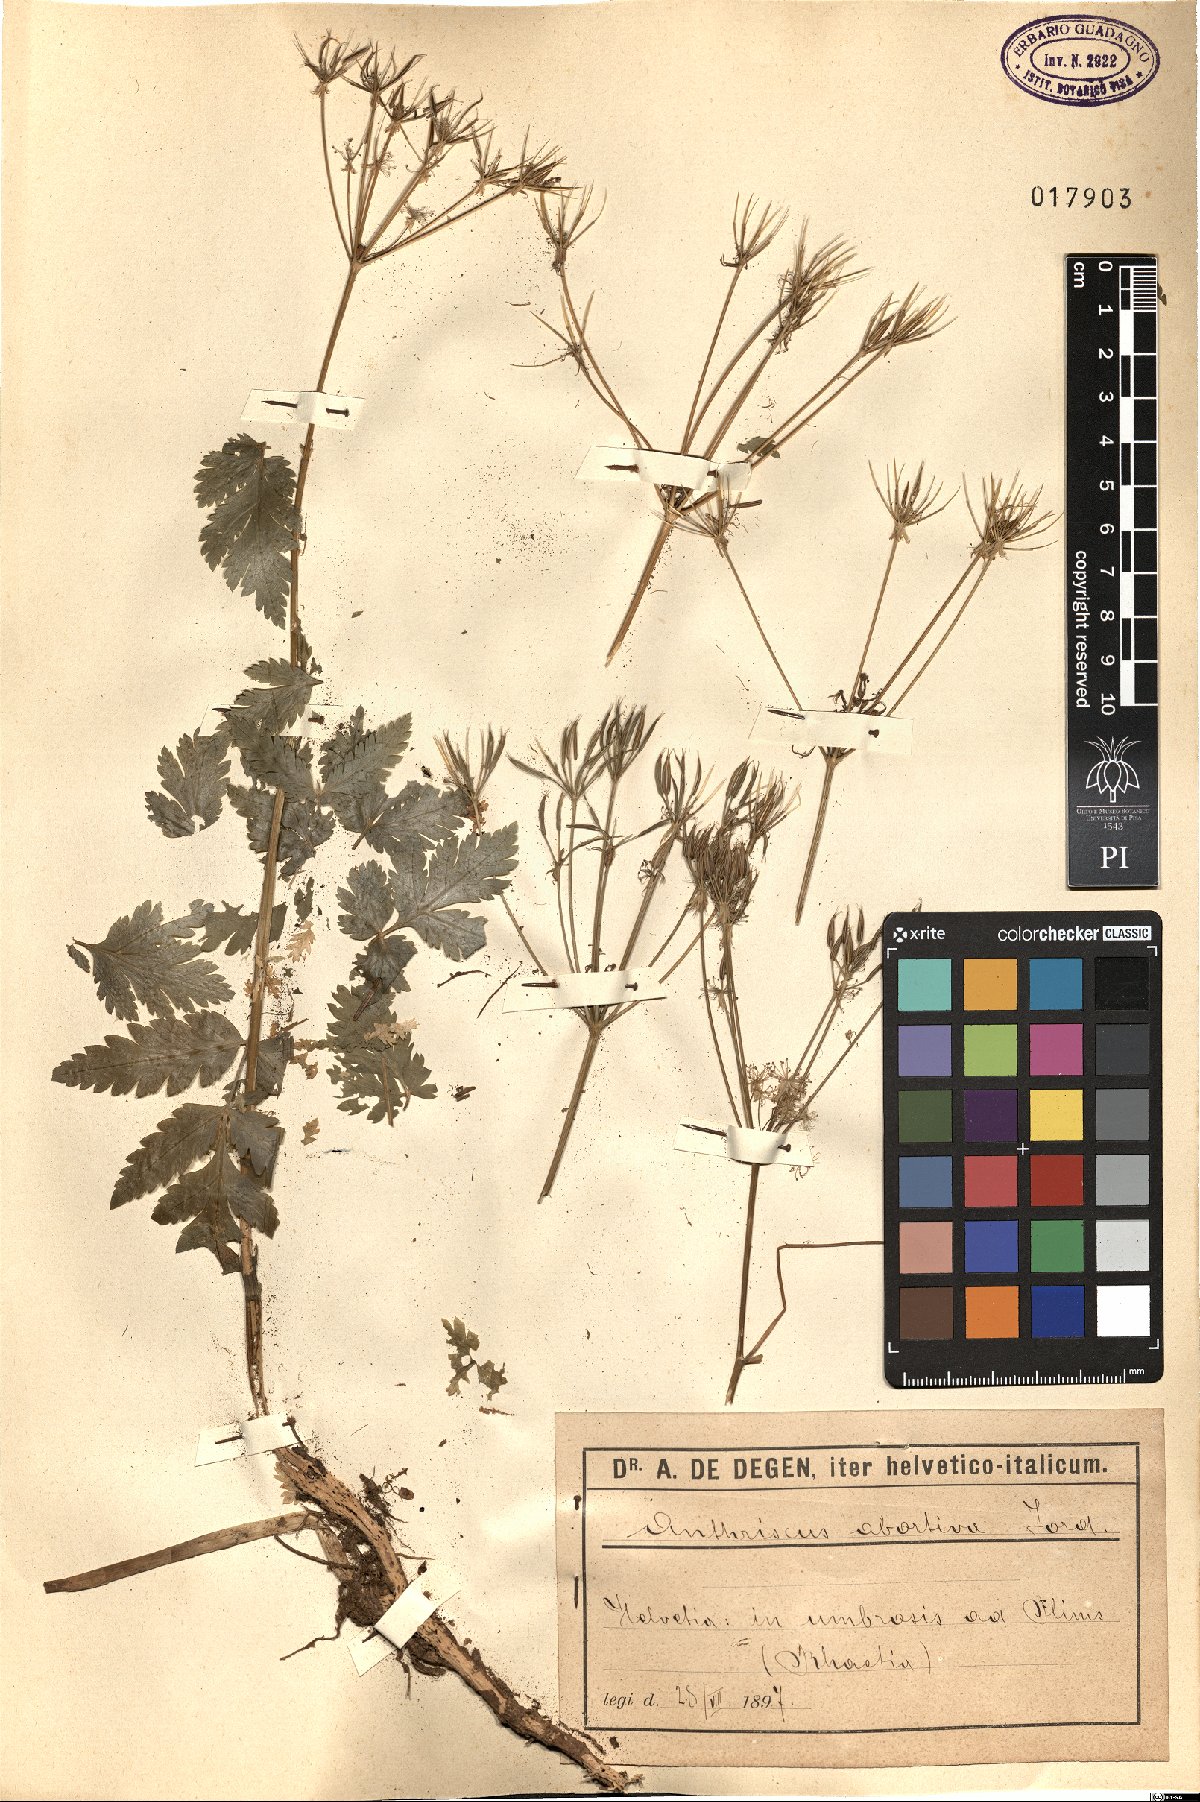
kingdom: Plantae
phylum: Tracheophyta
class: Magnoliopsida
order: Apiales
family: Apiaceae
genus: Anthriscus
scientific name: Anthriscus nitida
